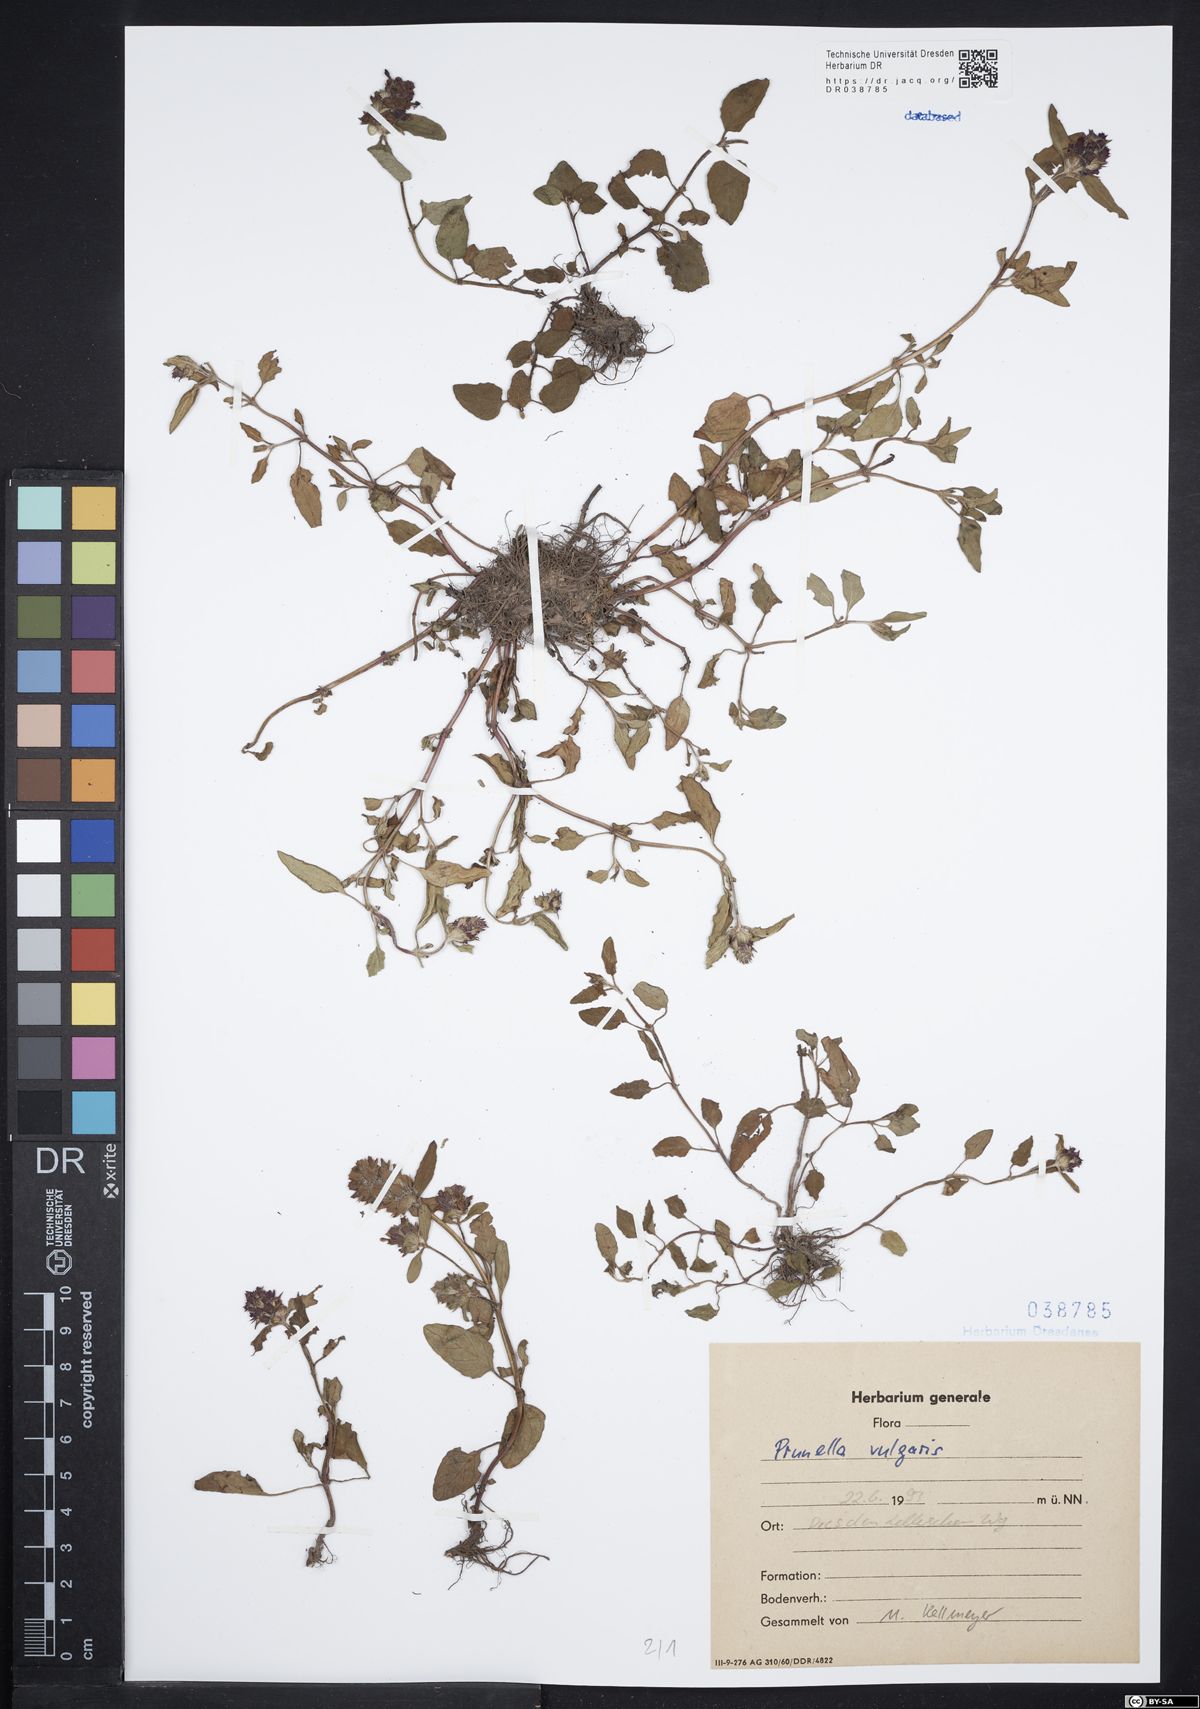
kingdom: Plantae
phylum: Tracheophyta
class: Magnoliopsida
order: Lamiales
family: Lamiaceae
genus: Prunella
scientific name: Prunella vulgaris
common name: Heal-all
